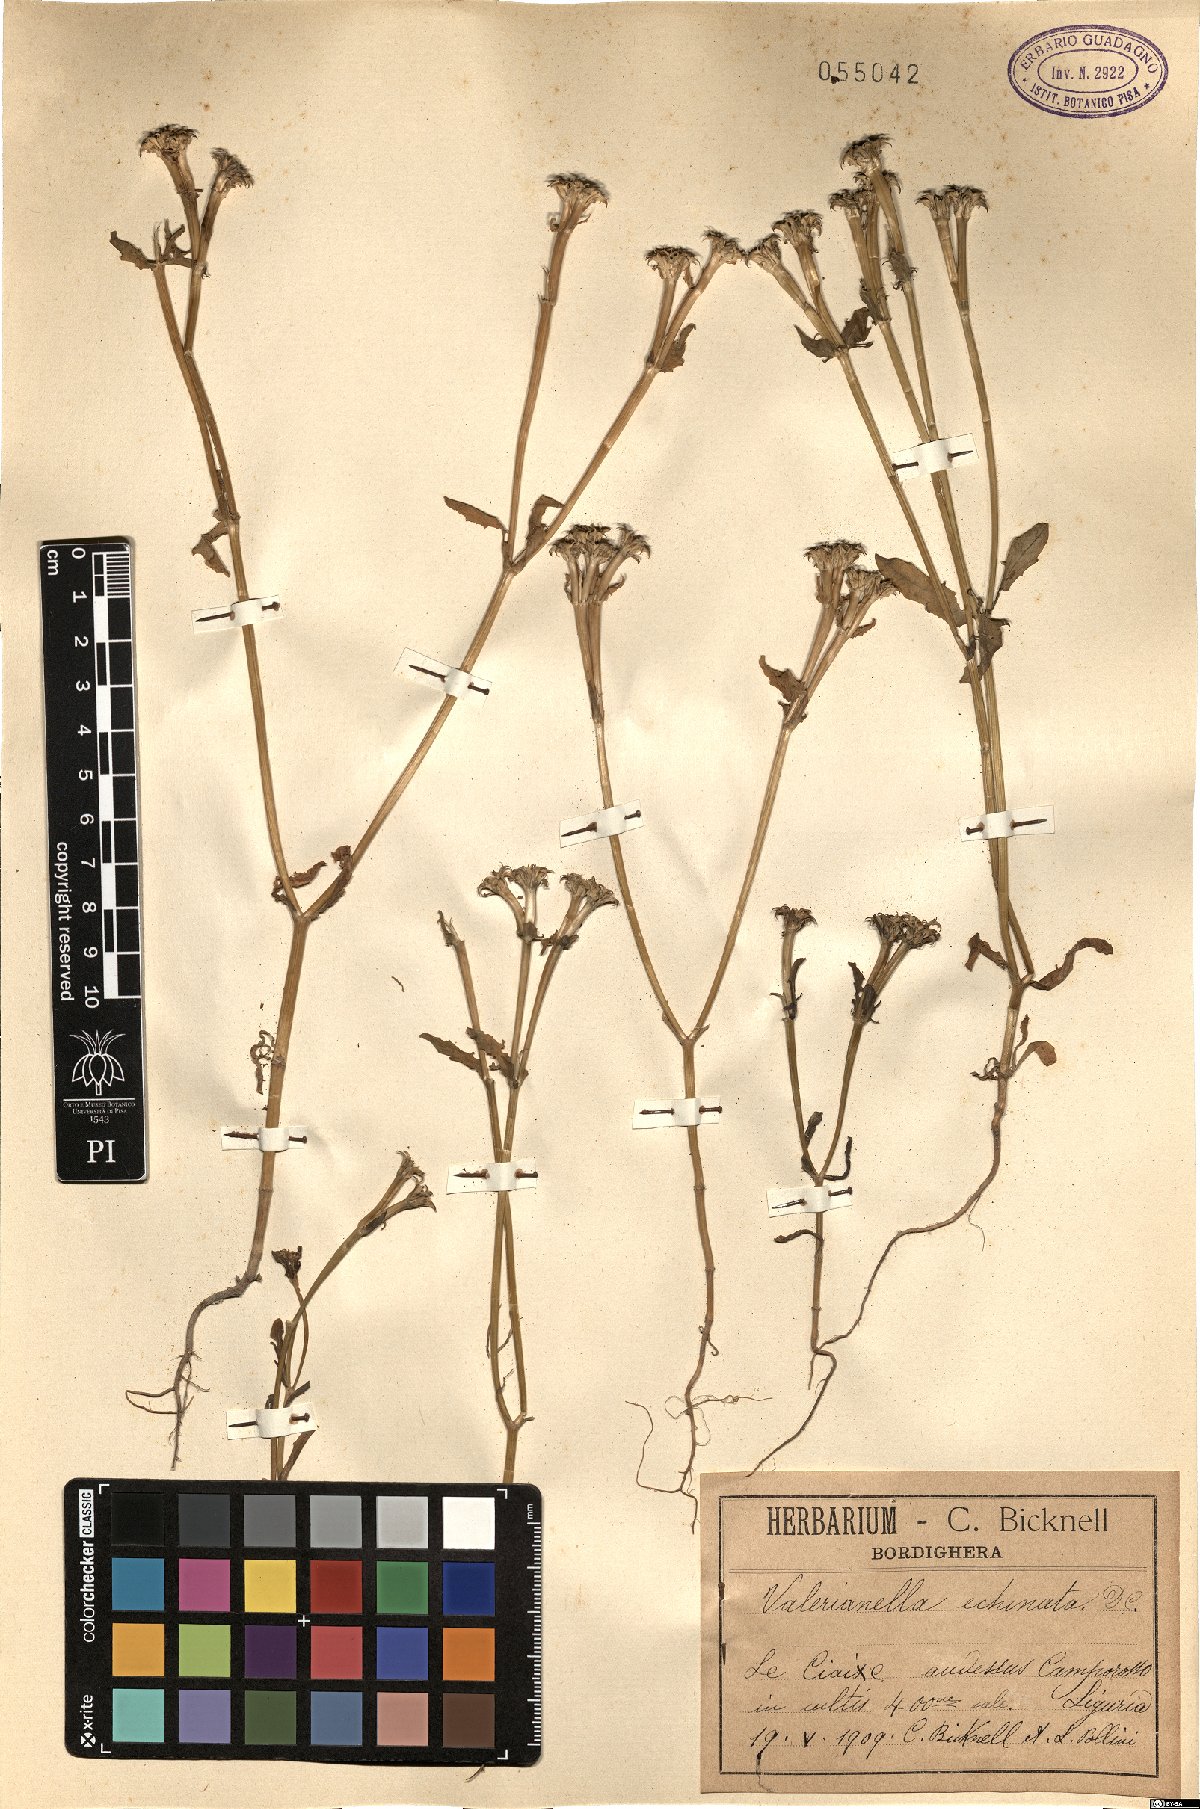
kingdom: Plantae
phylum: Tracheophyta
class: Magnoliopsida
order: Dipsacales
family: Caprifoliaceae
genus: Valerianella
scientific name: Valerianella echinata
